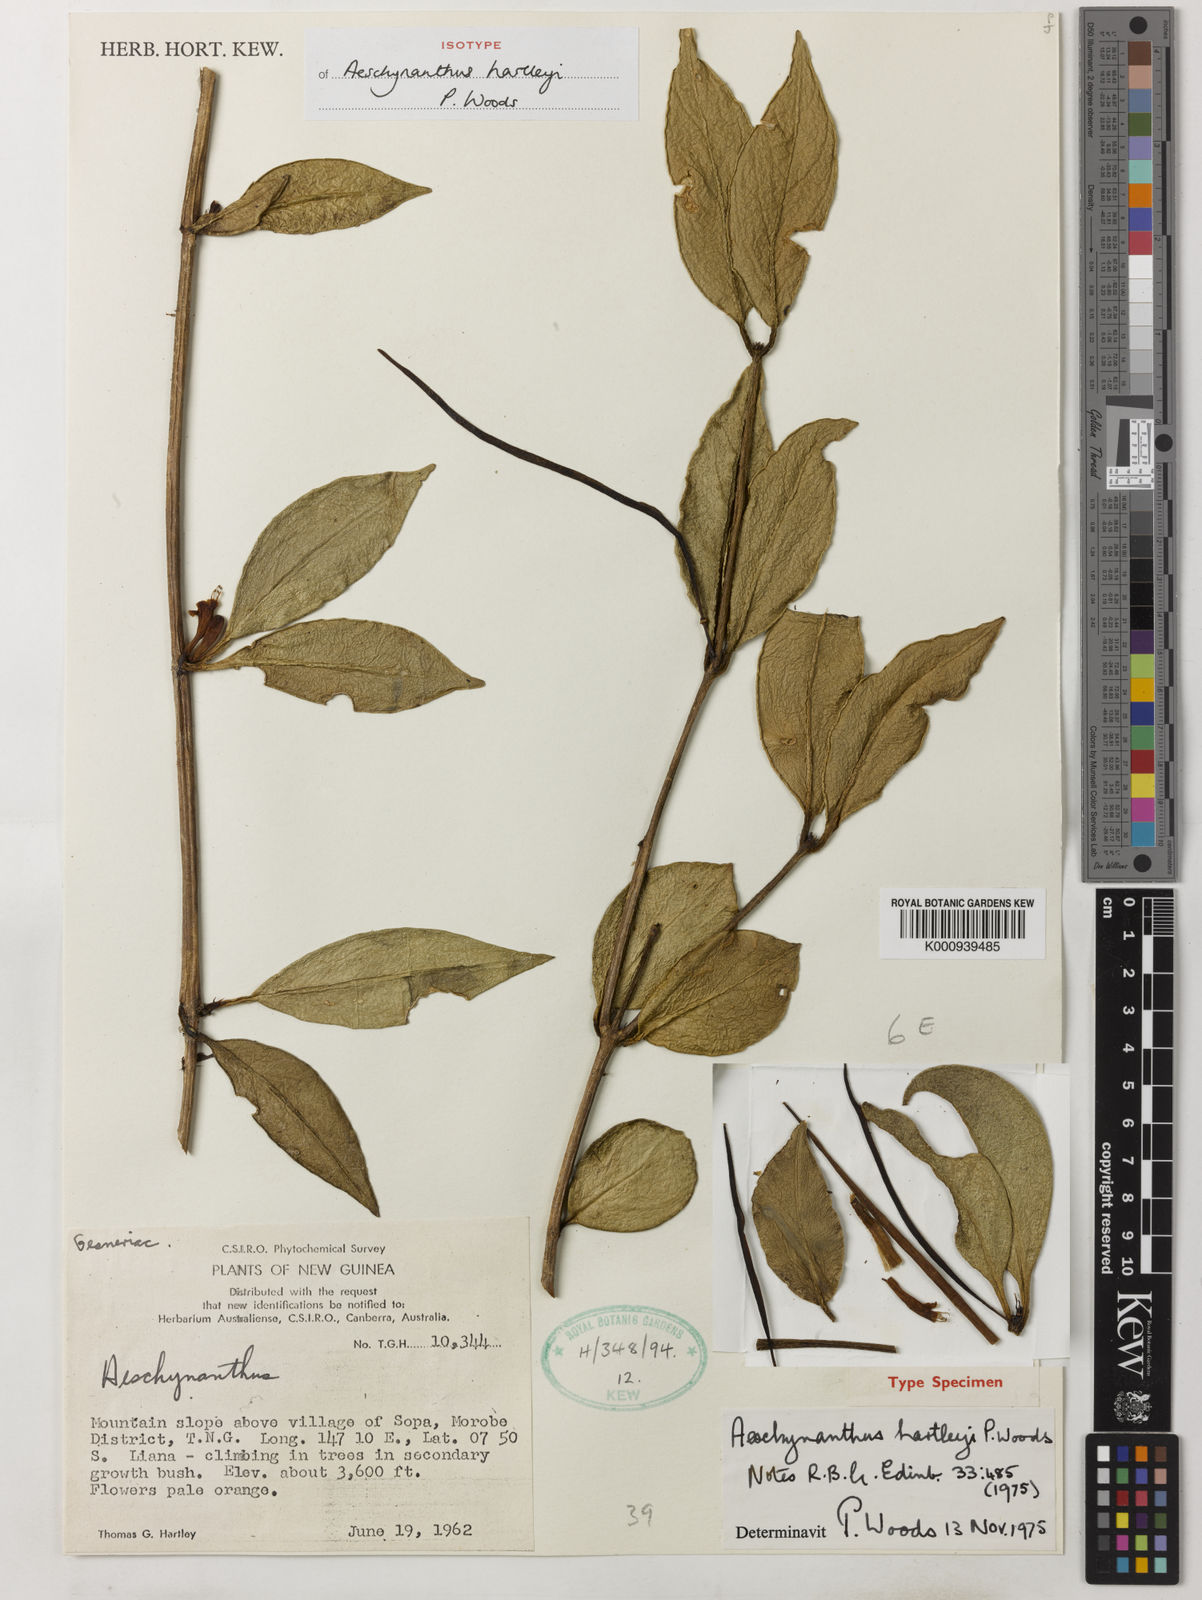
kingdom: Plantae
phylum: Tracheophyta
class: Magnoliopsida
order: Lamiales
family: Gesneriaceae
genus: Aeschynanthus
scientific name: Aeschynanthus hartleyi
